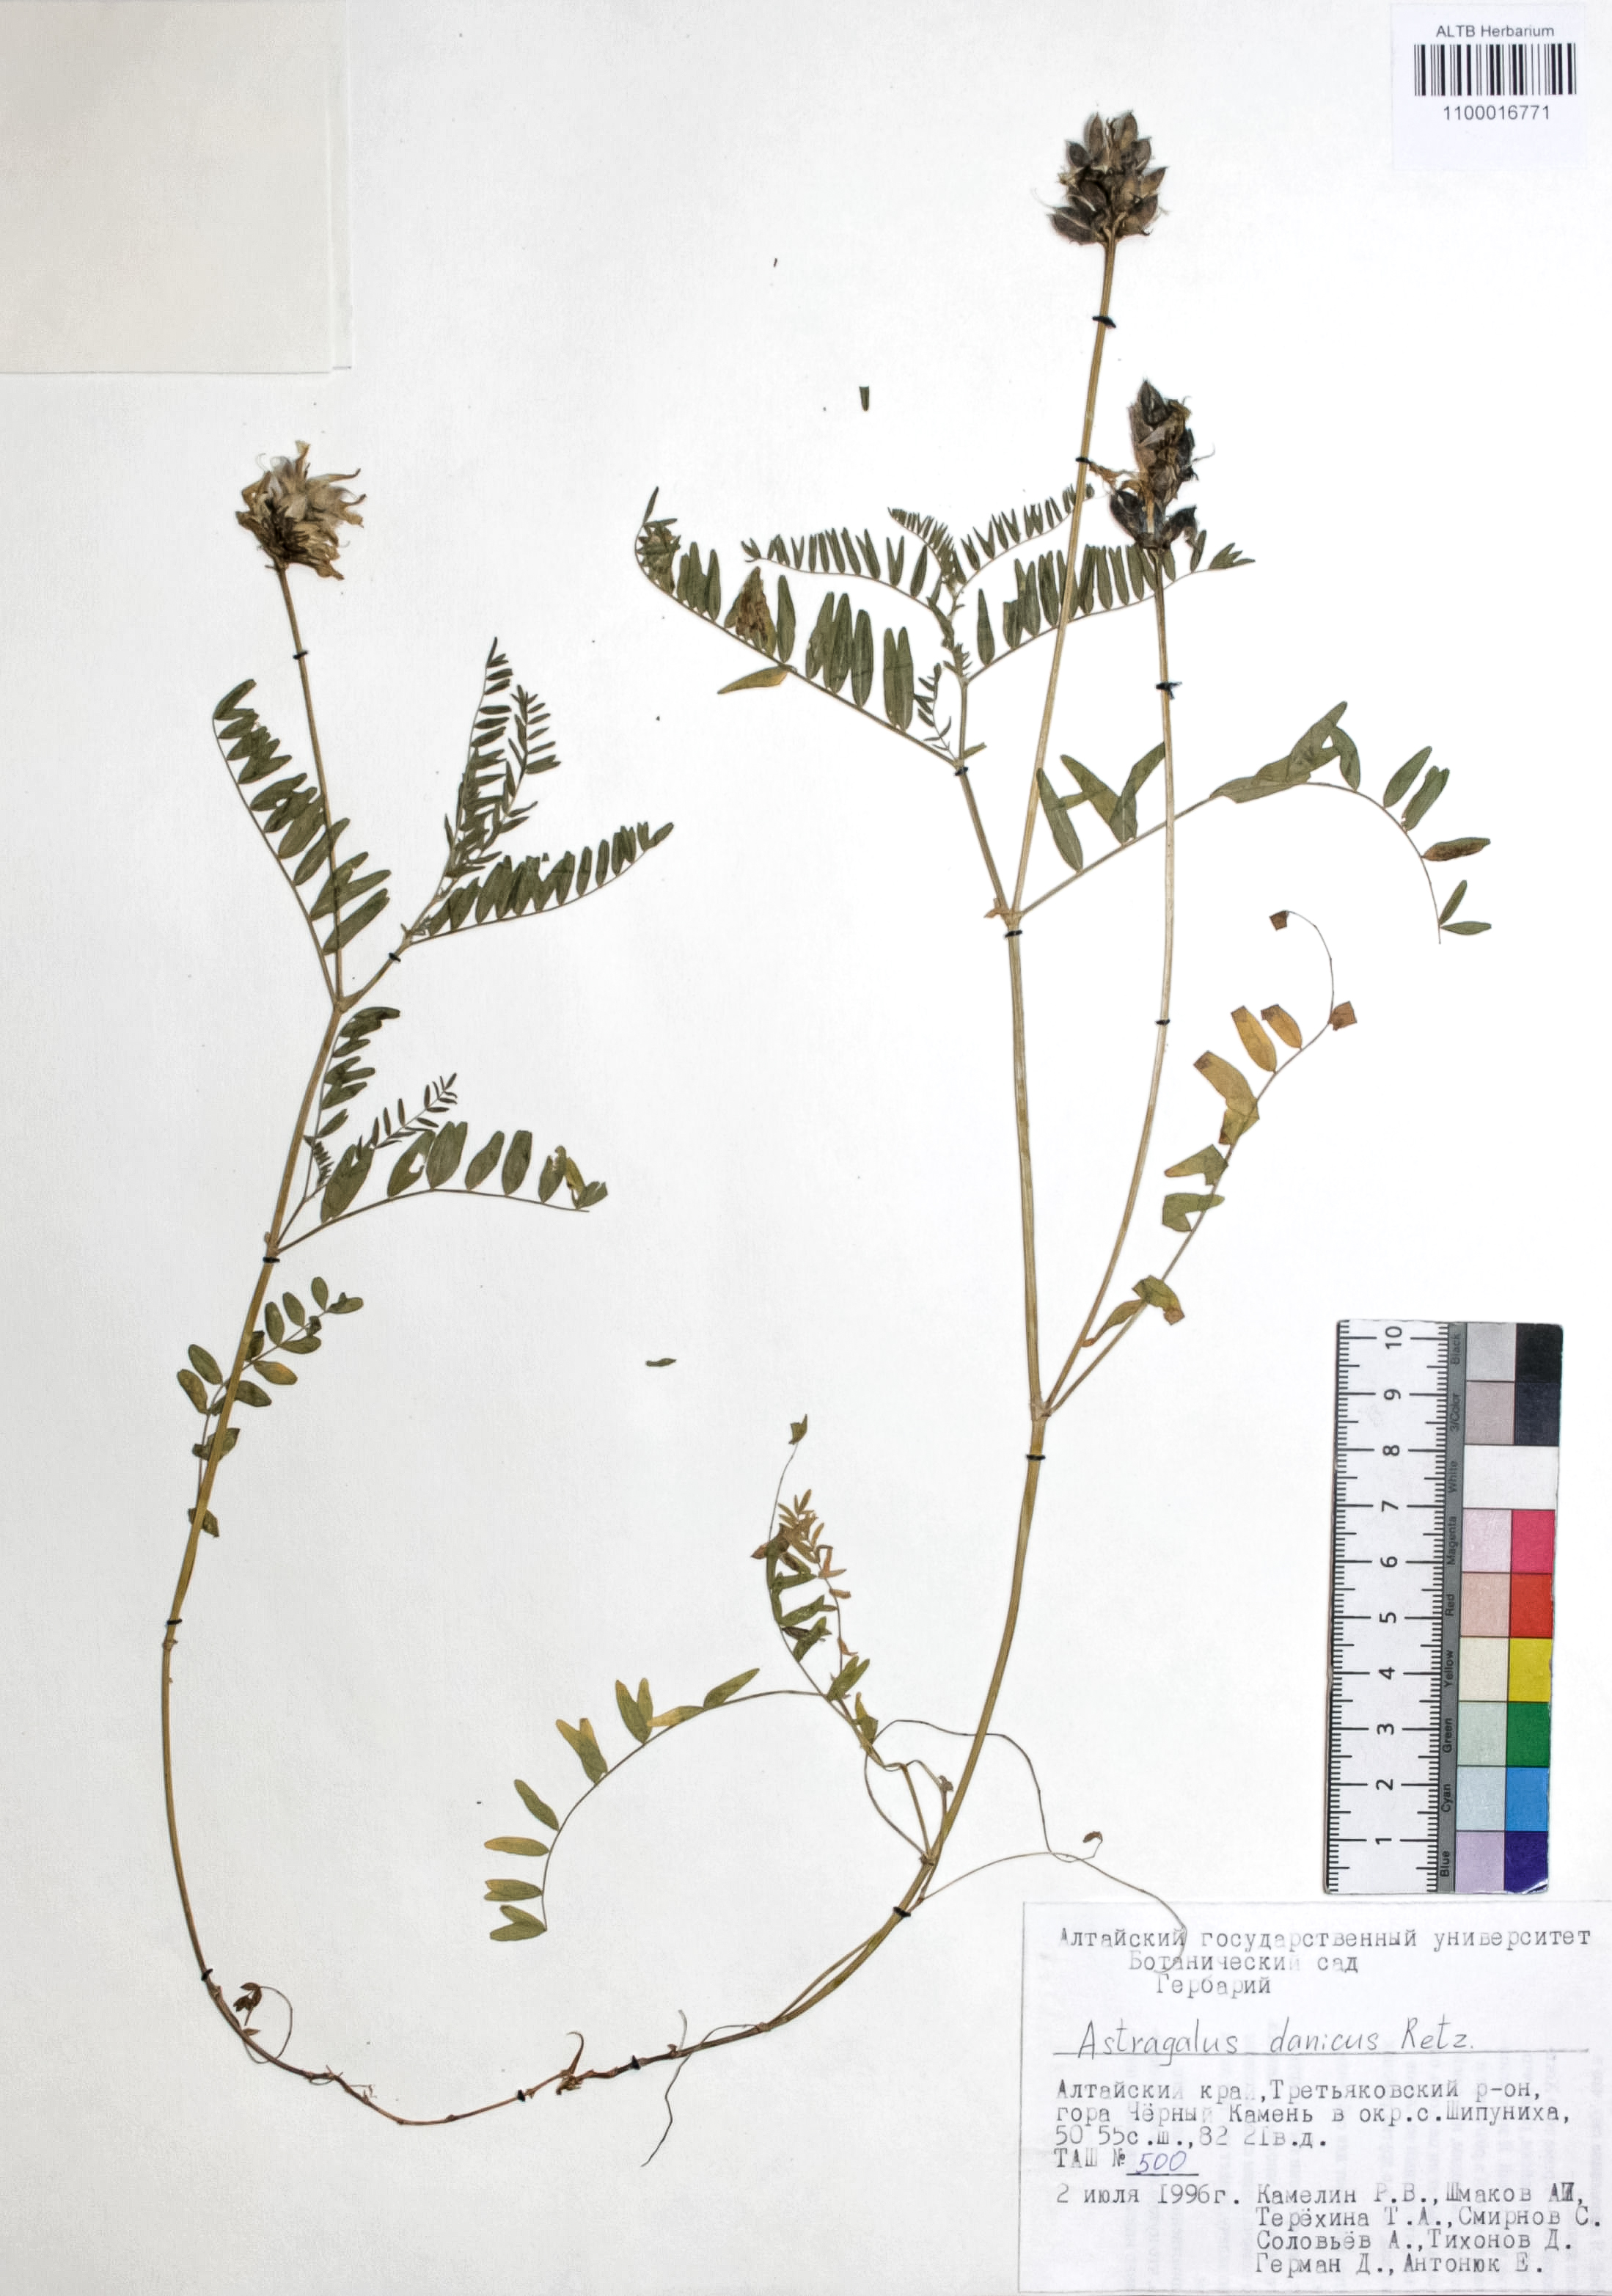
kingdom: Plantae
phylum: Tracheophyta
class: Magnoliopsida
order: Fabales
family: Fabaceae
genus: Astragalus
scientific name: Astragalus danicus
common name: Purple milk-vetch
